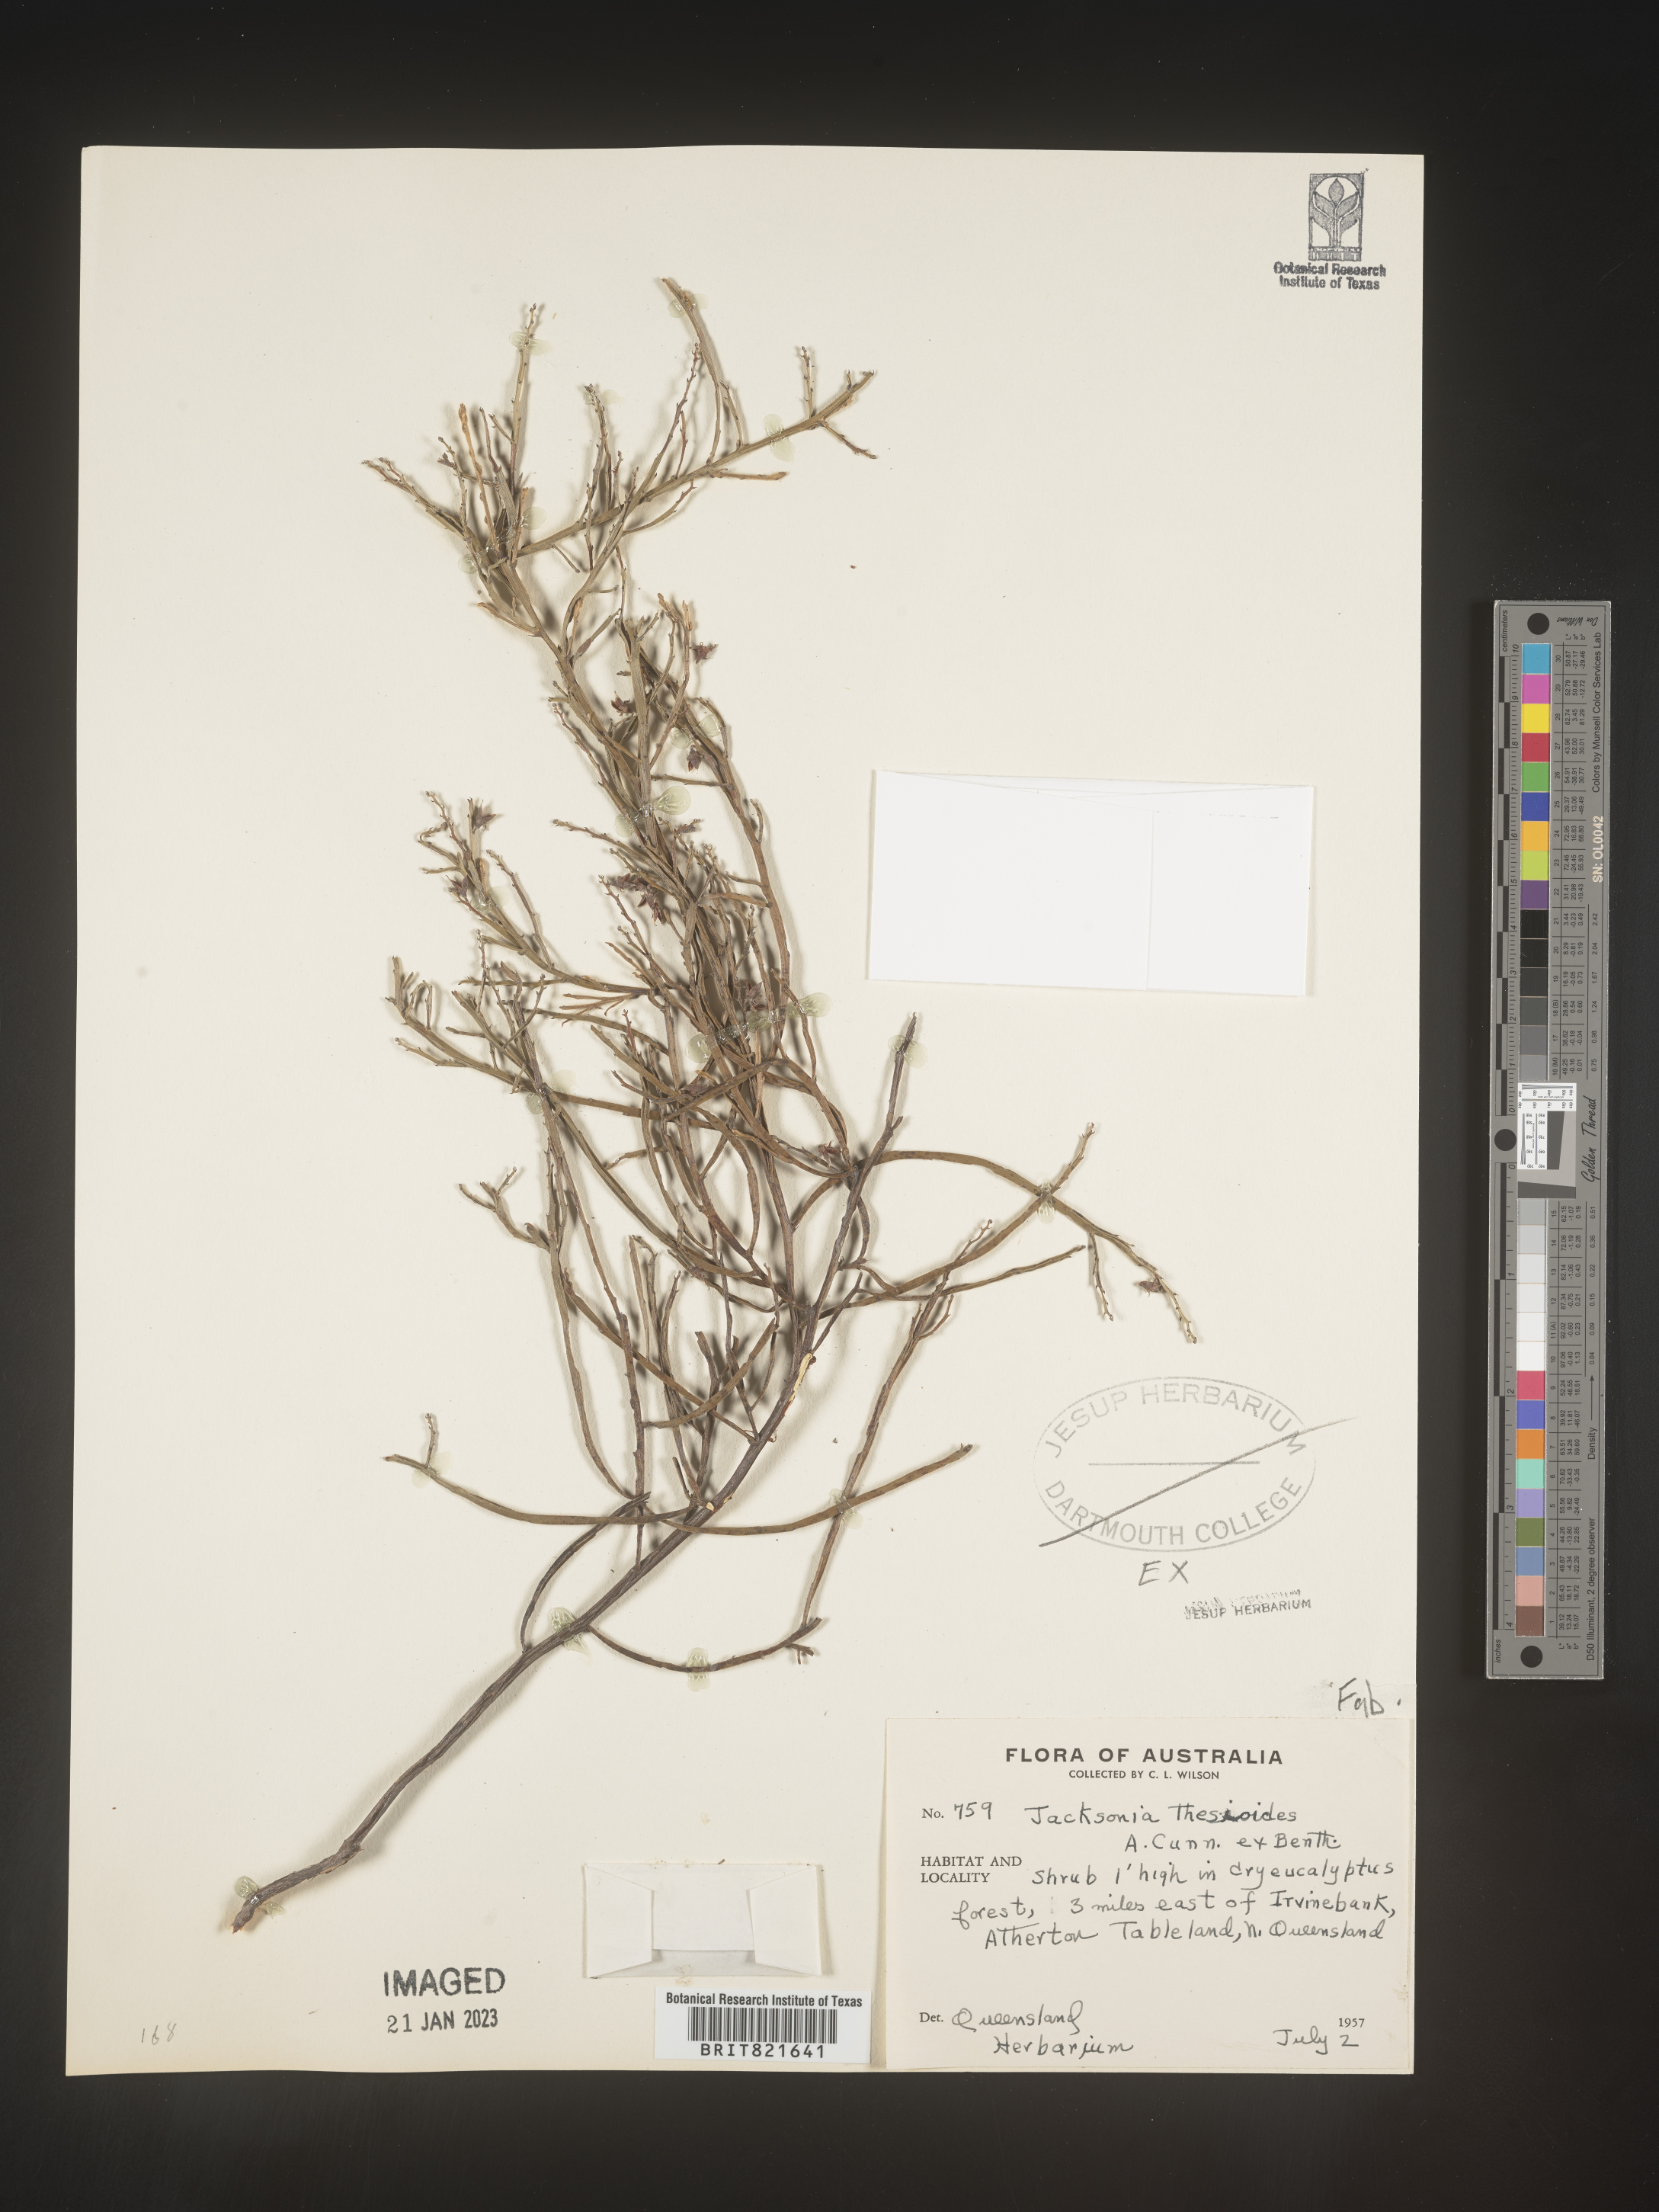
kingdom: Plantae
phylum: Tracheophyta
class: Magnoliopsida
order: Fabales
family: Fabaceae
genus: Jacksonia
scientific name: Jacksonia
